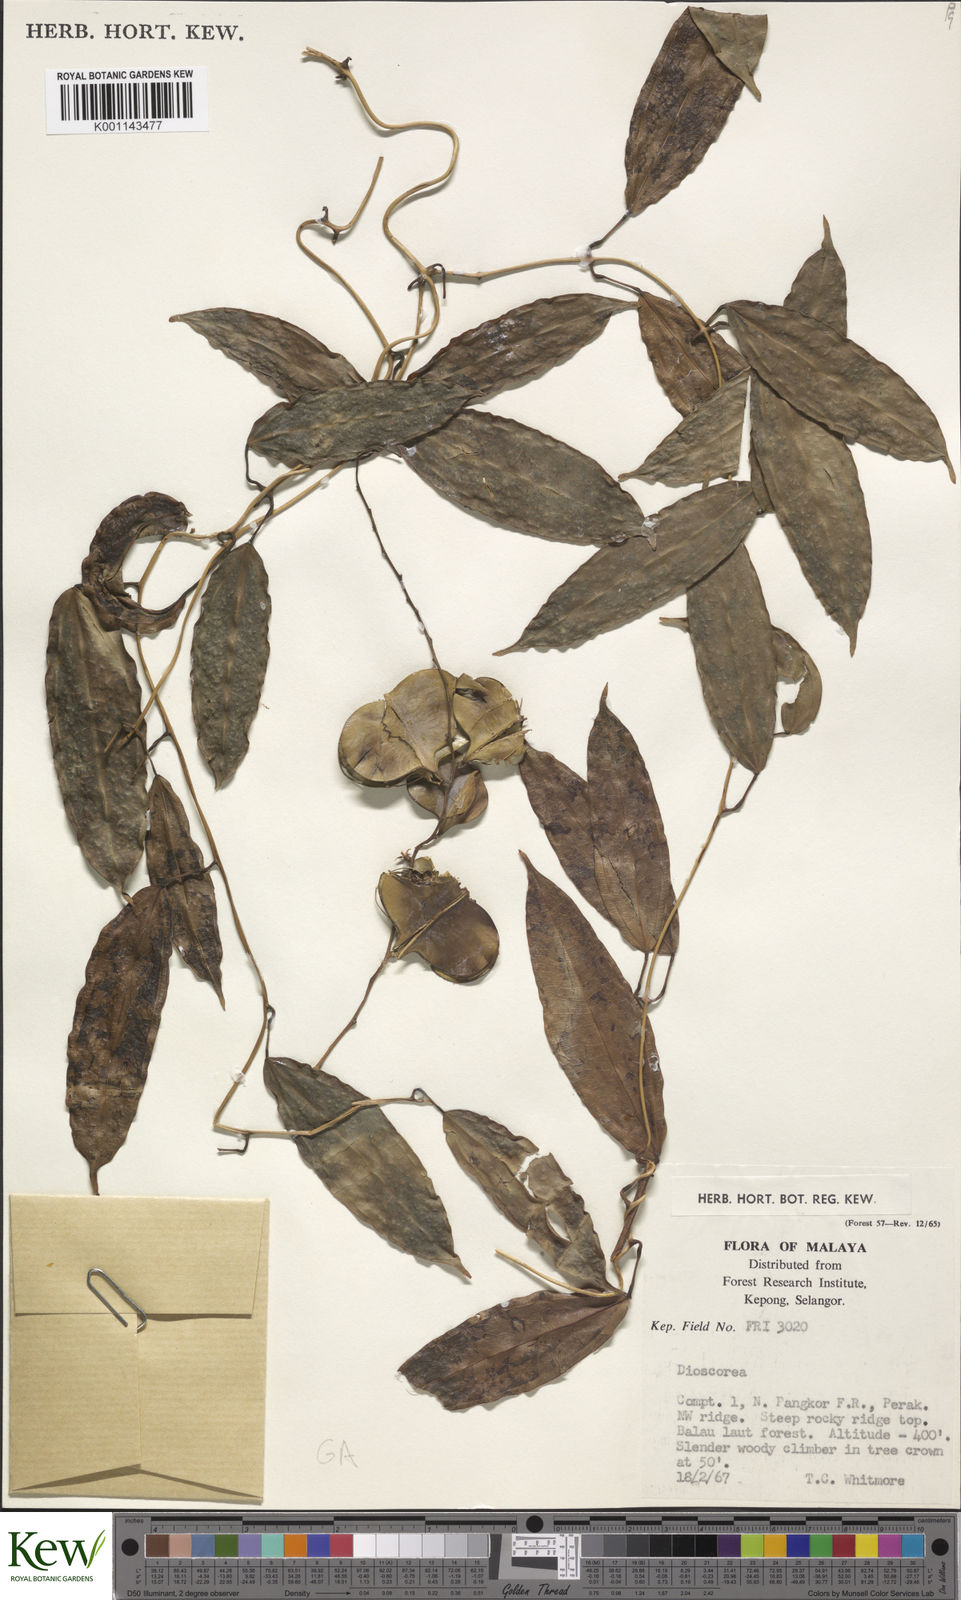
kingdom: Plantae
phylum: Tracheophyta
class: Liliopsida
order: Dioscoreales
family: Dioscoreaceae
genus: Dioscorea
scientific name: Dioscorea
